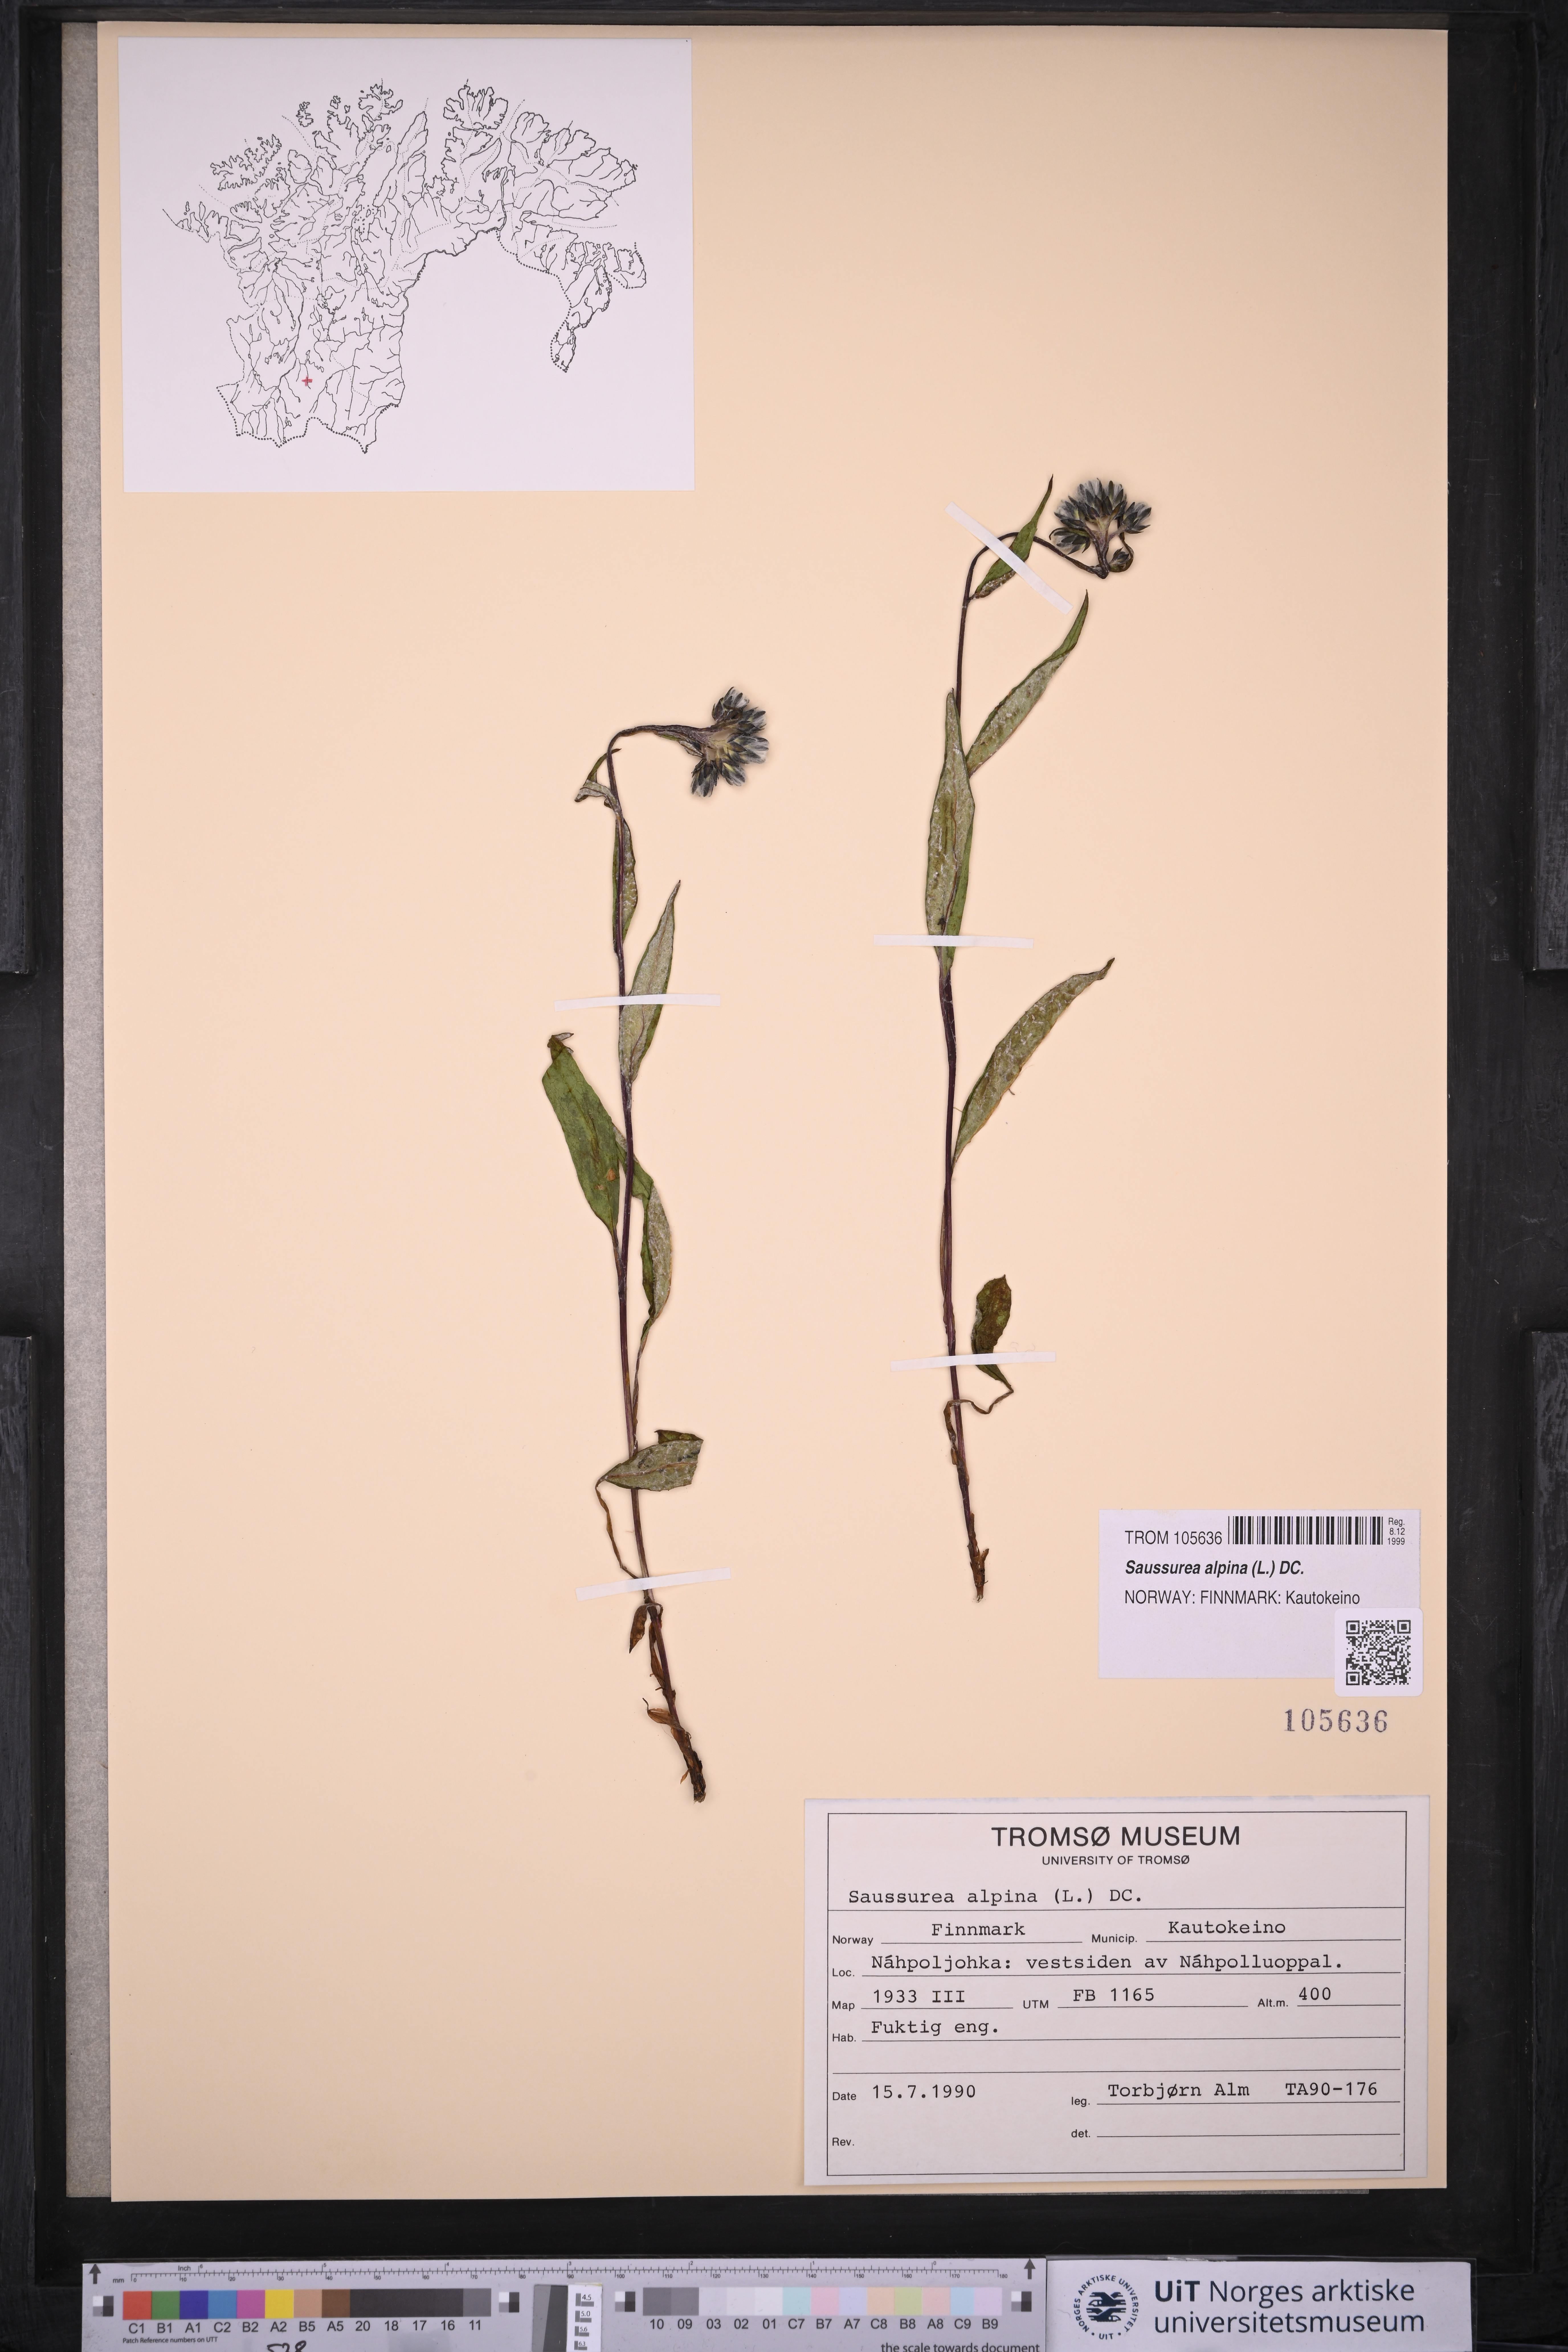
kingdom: Plantae
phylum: Tracheophyta
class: Magnoliopsida
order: Asterales
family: Asteraceae
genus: Saussurea
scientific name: Saussurea alpina
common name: Alpine saw-wort
